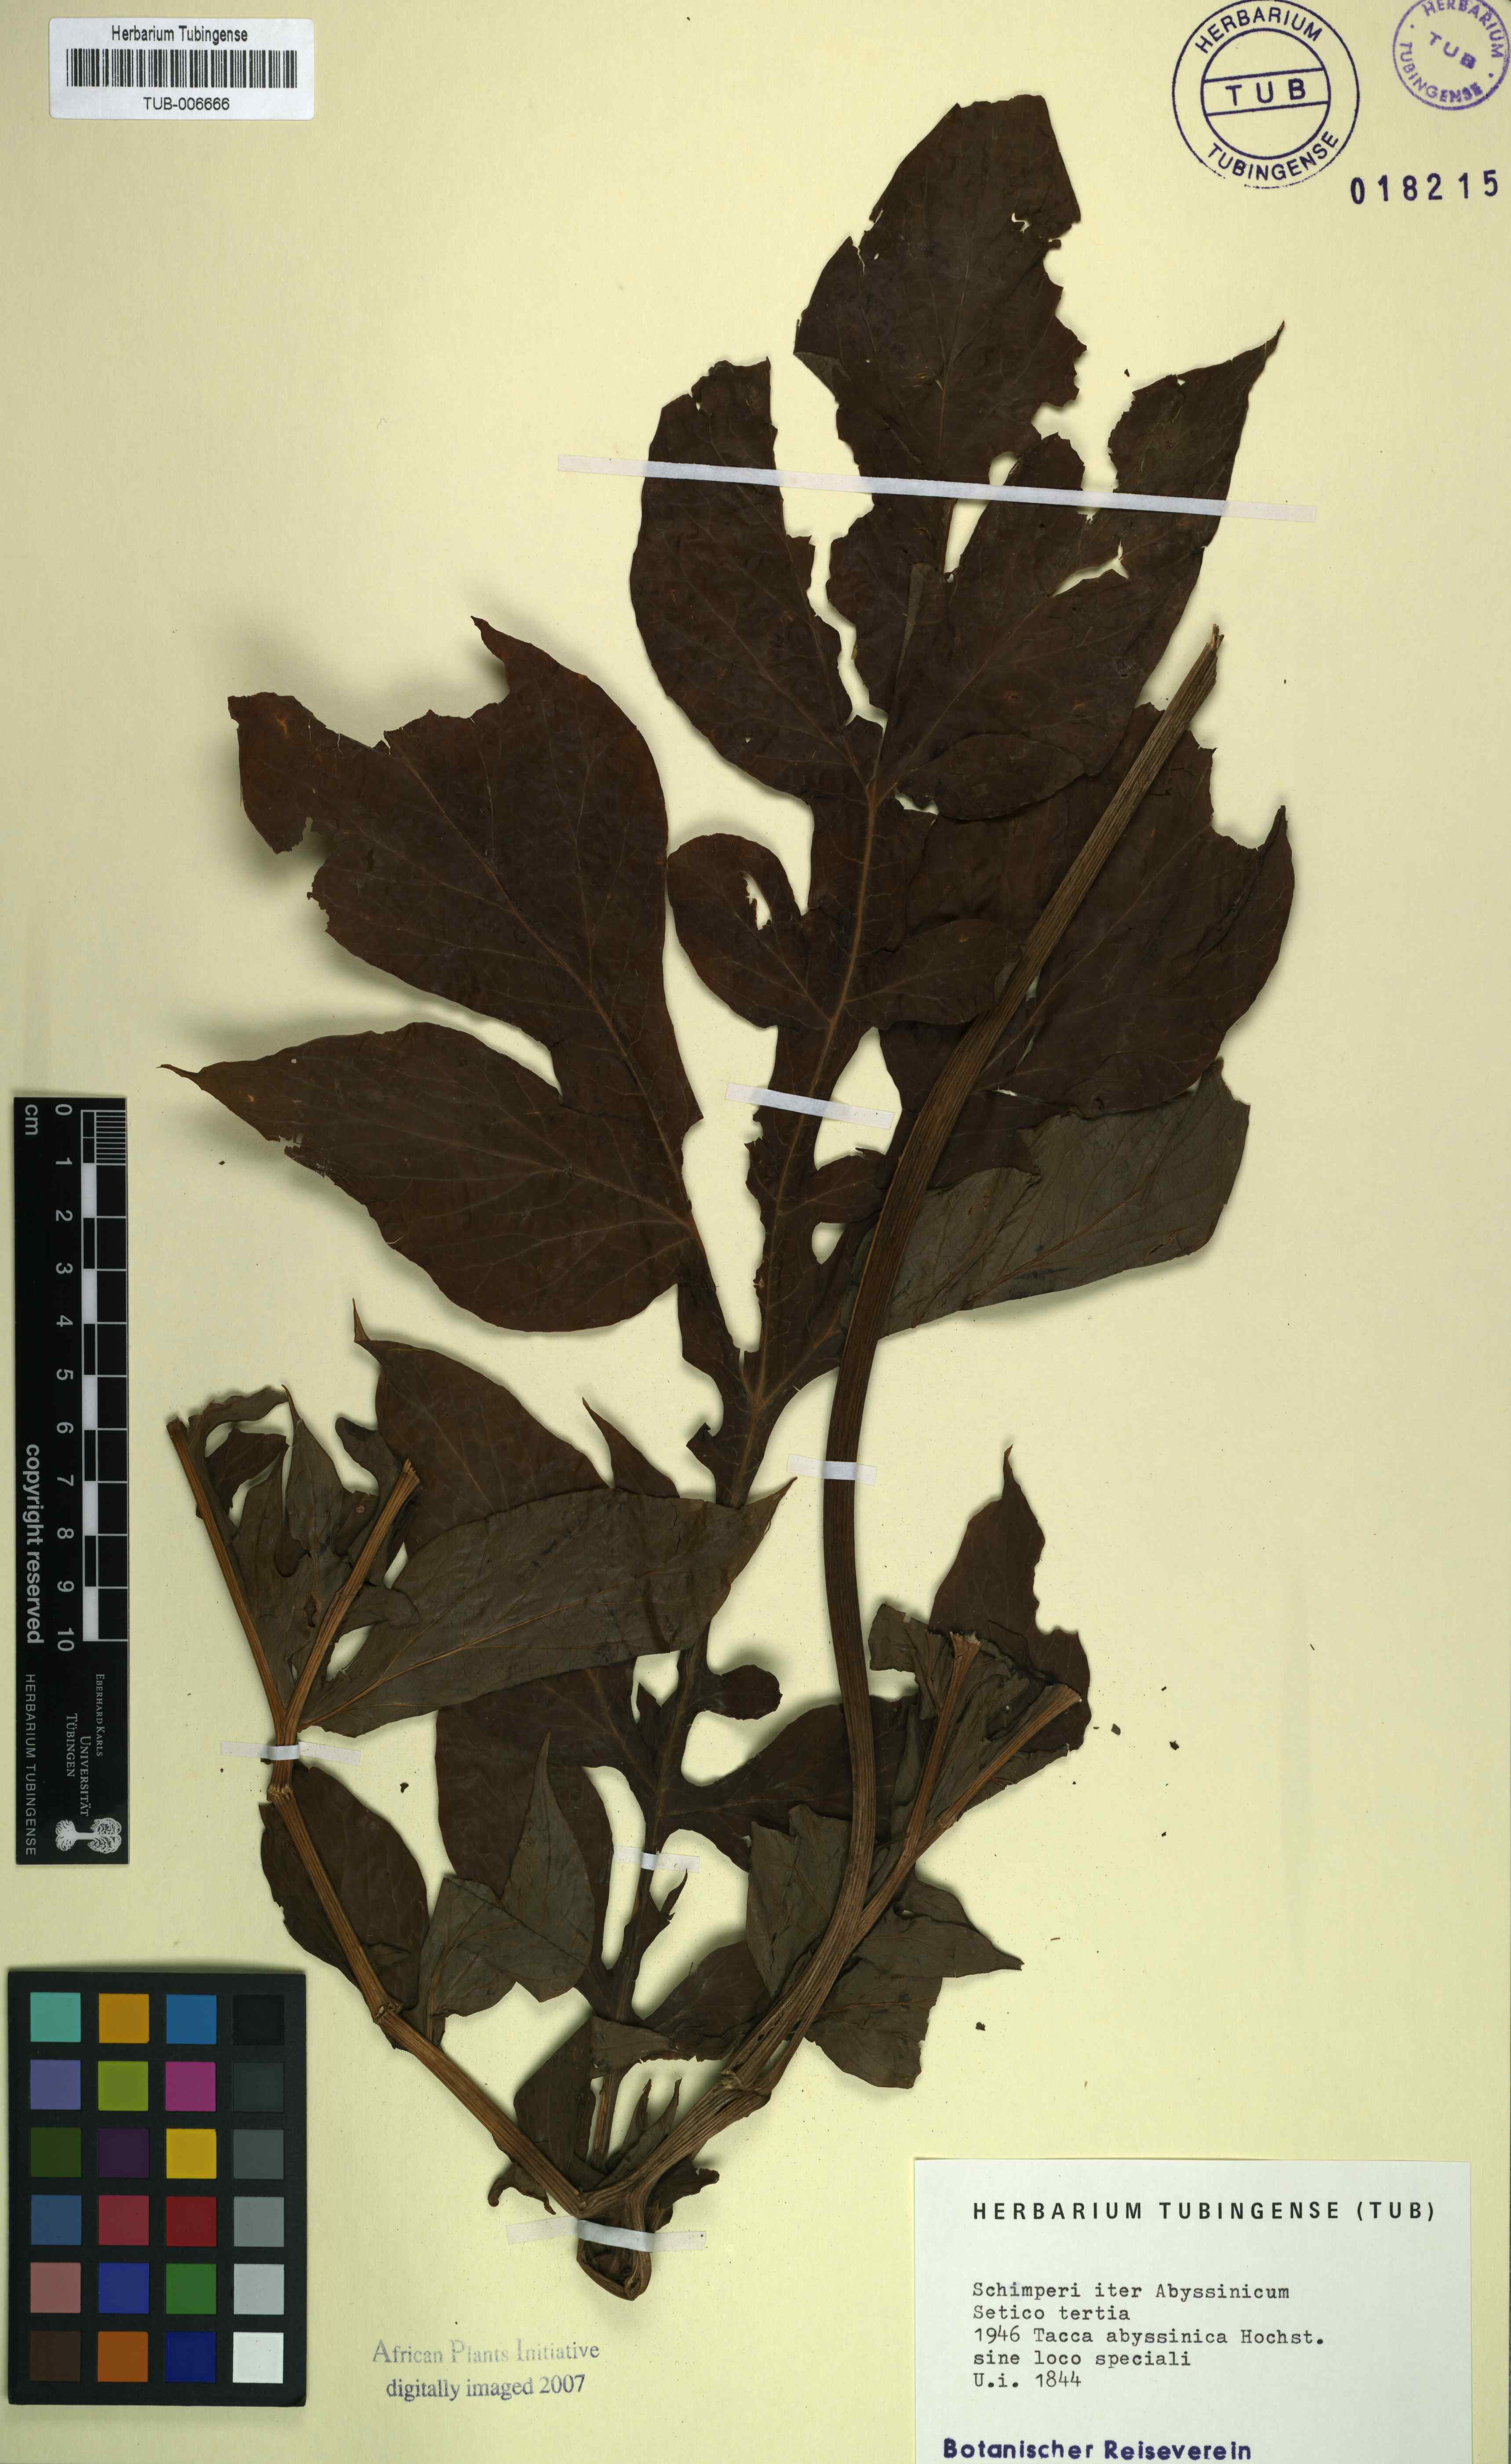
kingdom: Plantae
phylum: Tracheophyta
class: Liliopsida
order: Dioscoreales
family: Dioscoreaceae
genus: Tacca
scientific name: Tacca leontopetaloides
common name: Arrowroot
